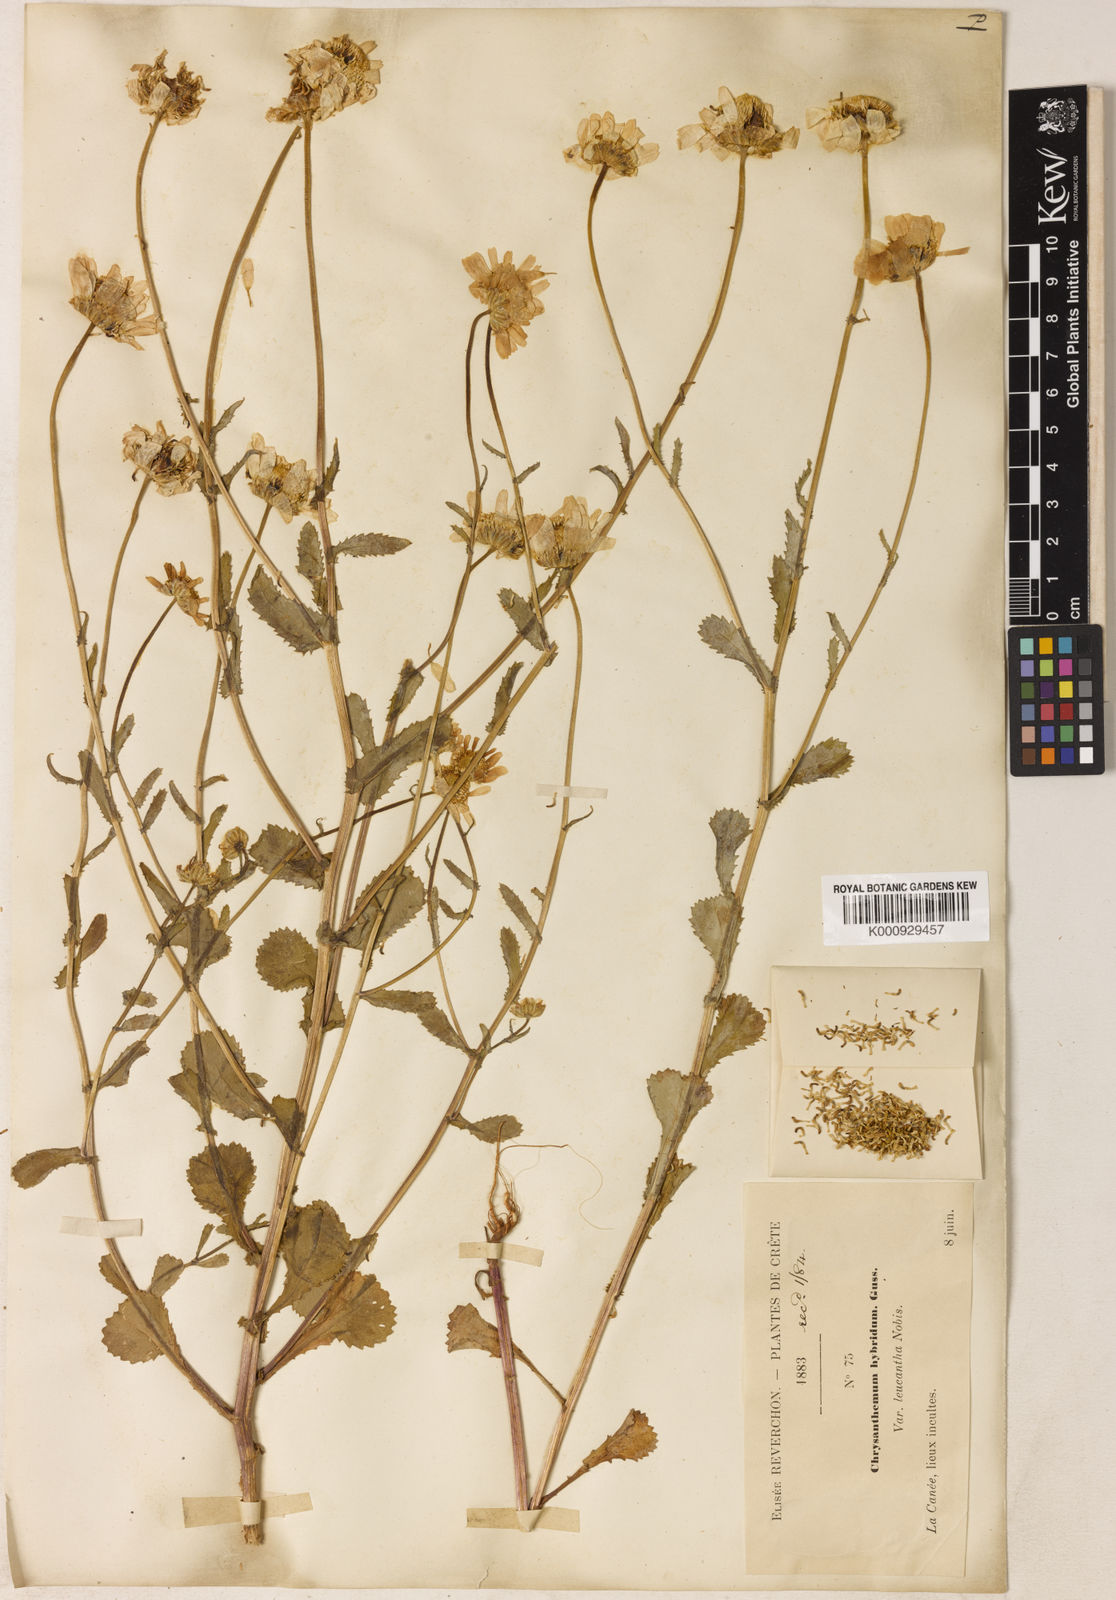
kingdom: Plantae
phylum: Tracheophyta
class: Magnoliopsida
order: Asterales
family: Asteraceae
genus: Coleostephus
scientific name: Coleostephus myconis
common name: Mediterranean marigold
